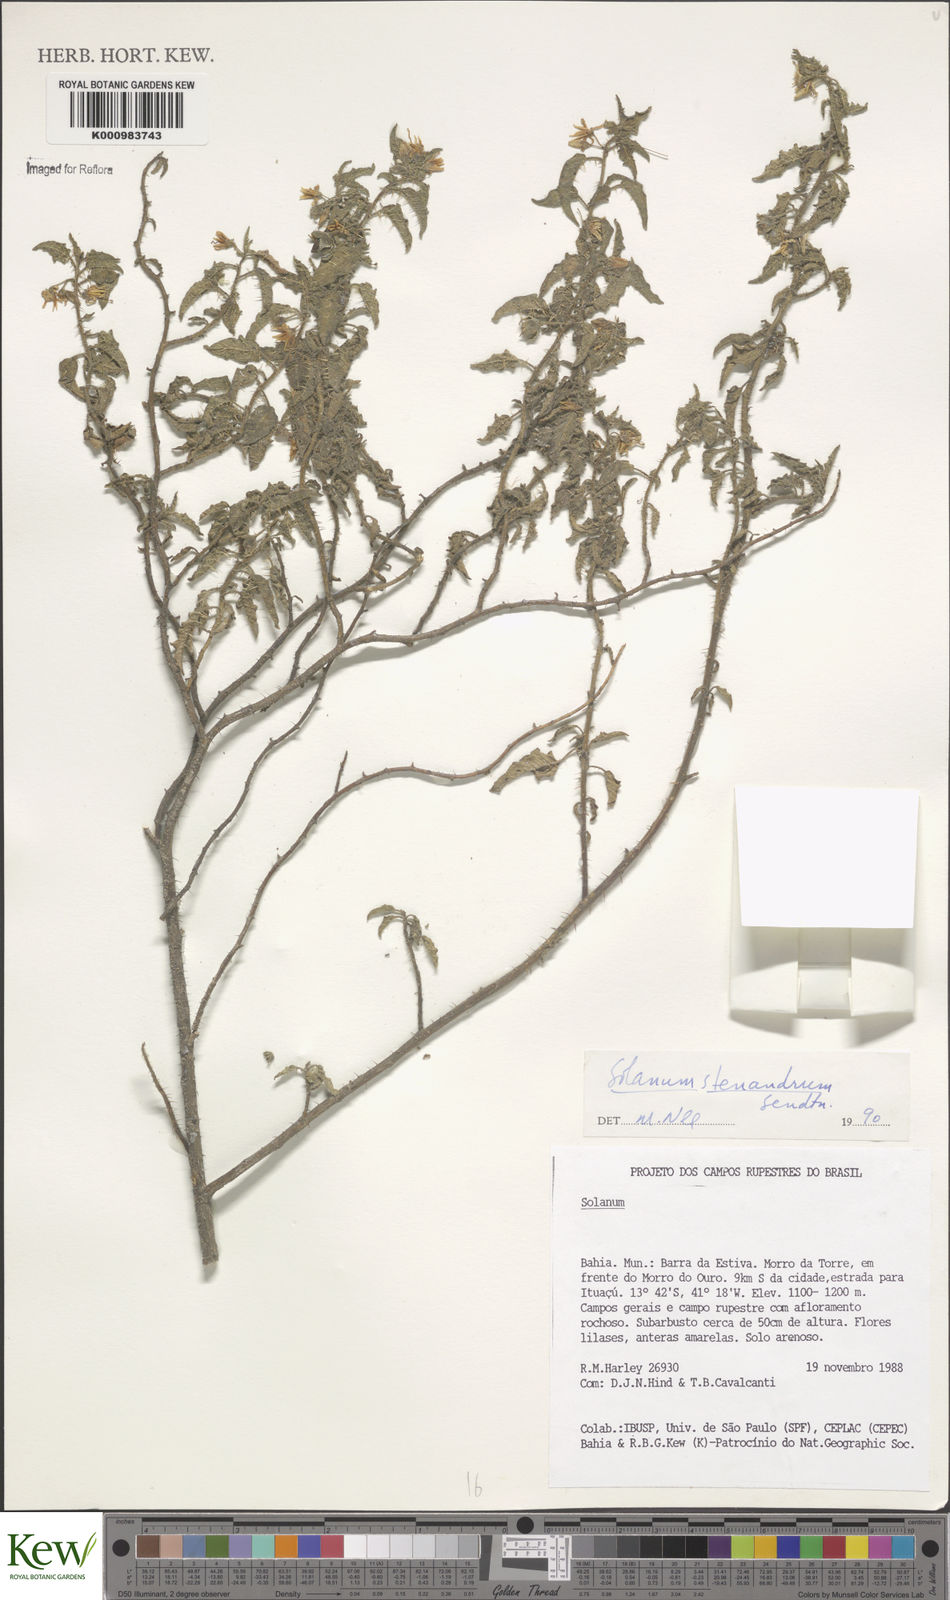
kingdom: Plantae
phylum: Tracheophyta
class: Magnoliopsida
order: Solanales
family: Solanaceae
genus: Solanum
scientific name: Solanum stenandrum
